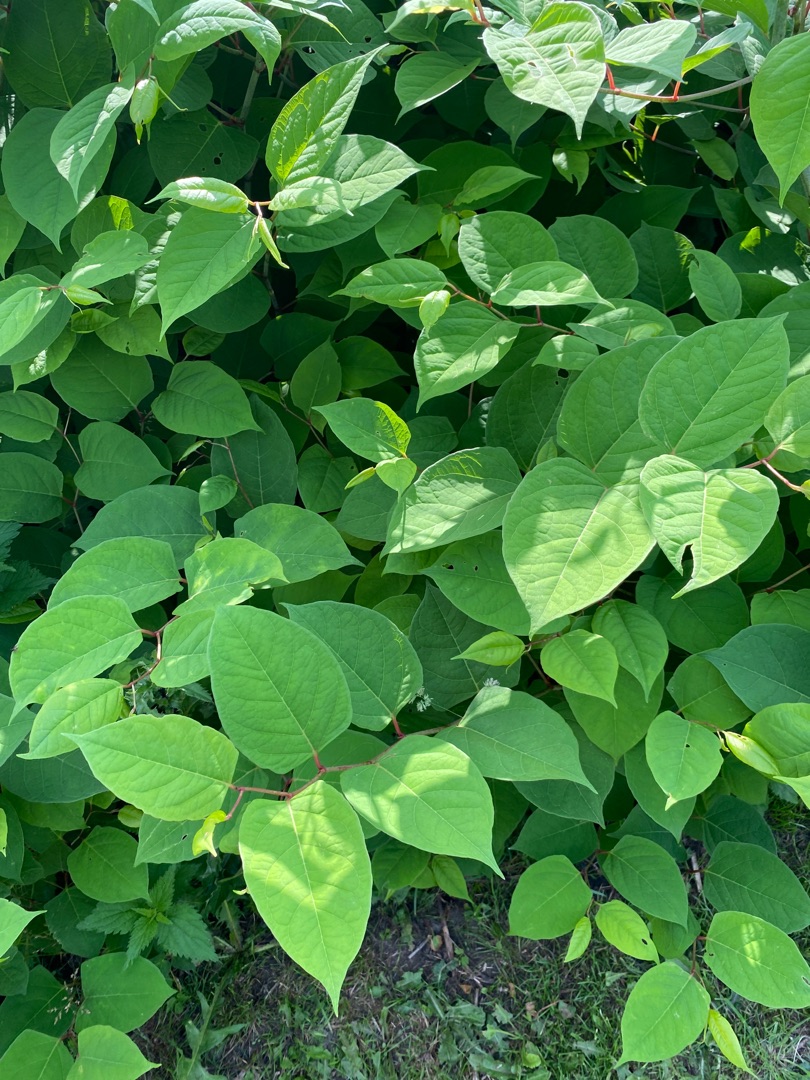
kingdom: Plantae
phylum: Tracheophyta
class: Magnoliopsida
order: Caryophyllales
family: Polygonaceae
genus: Reynoutria
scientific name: Reynoutria japonica
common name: Japan-pileurt
